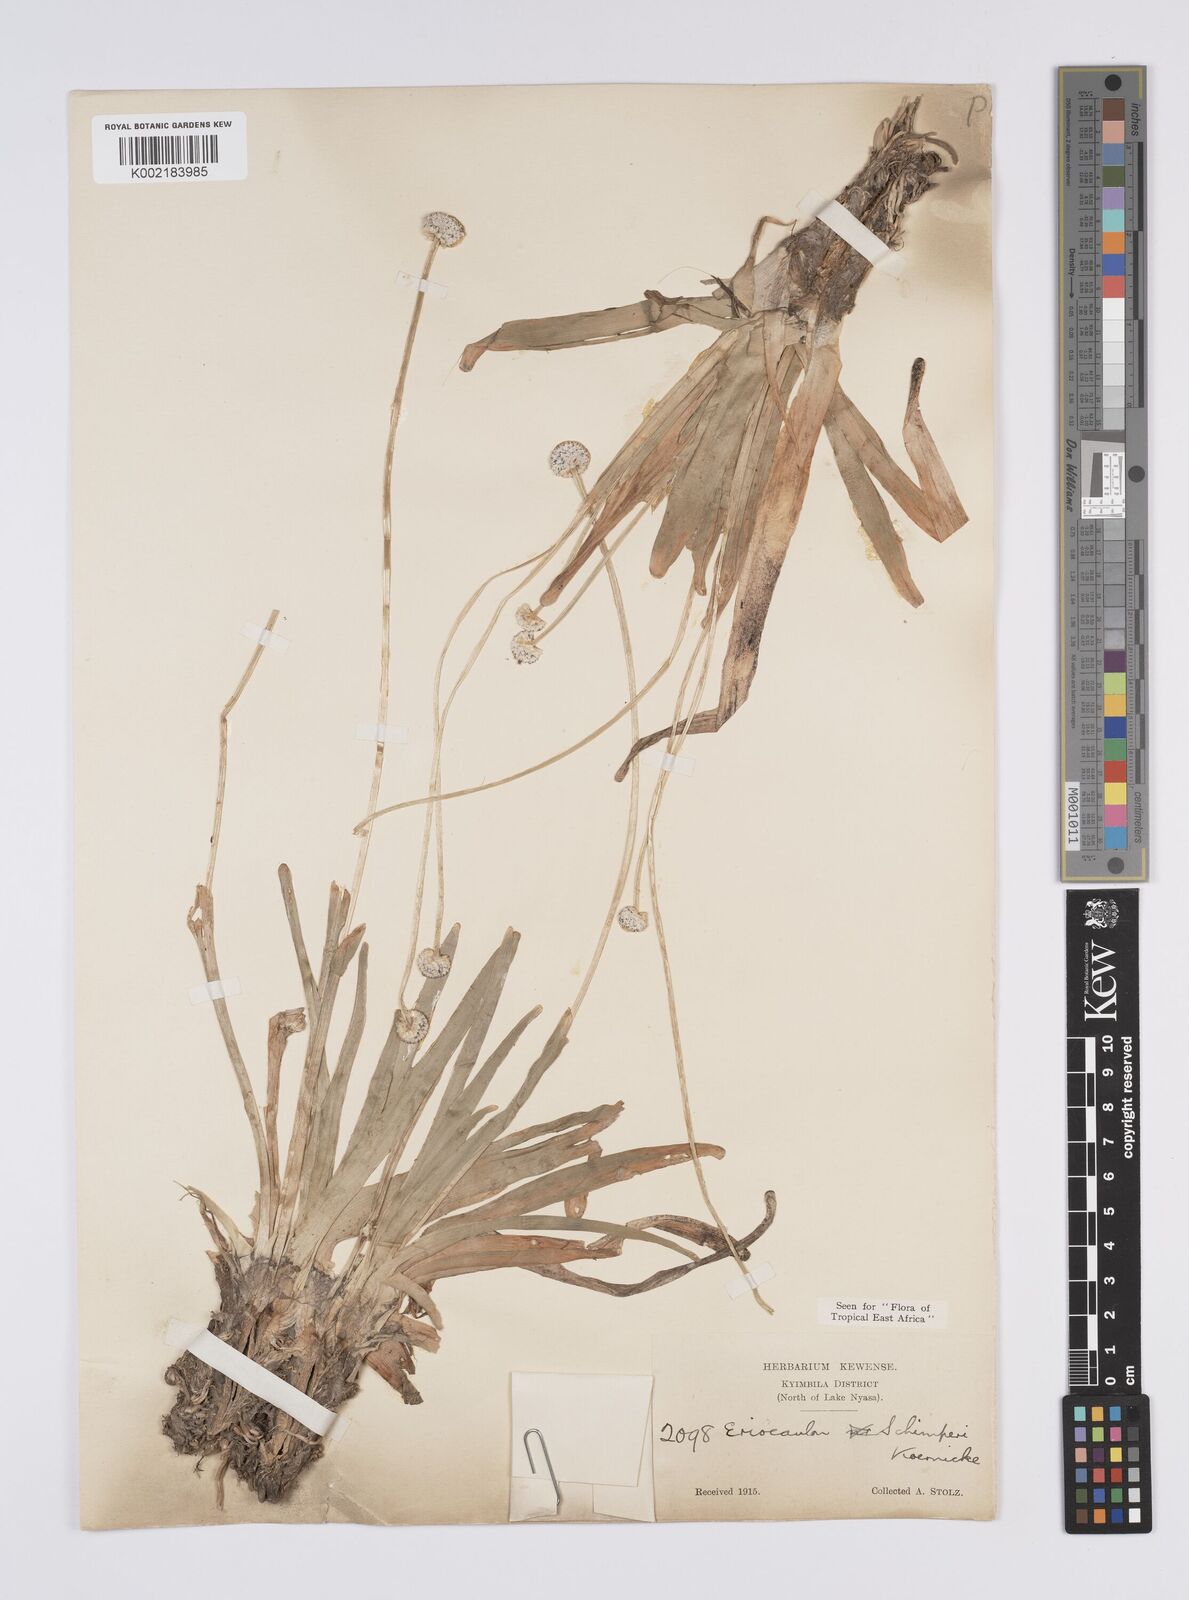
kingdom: Plantae
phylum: Tracheophyta
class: Liliopsida
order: Poales
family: Eriocaulaceae
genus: Eriocaulon
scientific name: Eriocaulon schimperi
